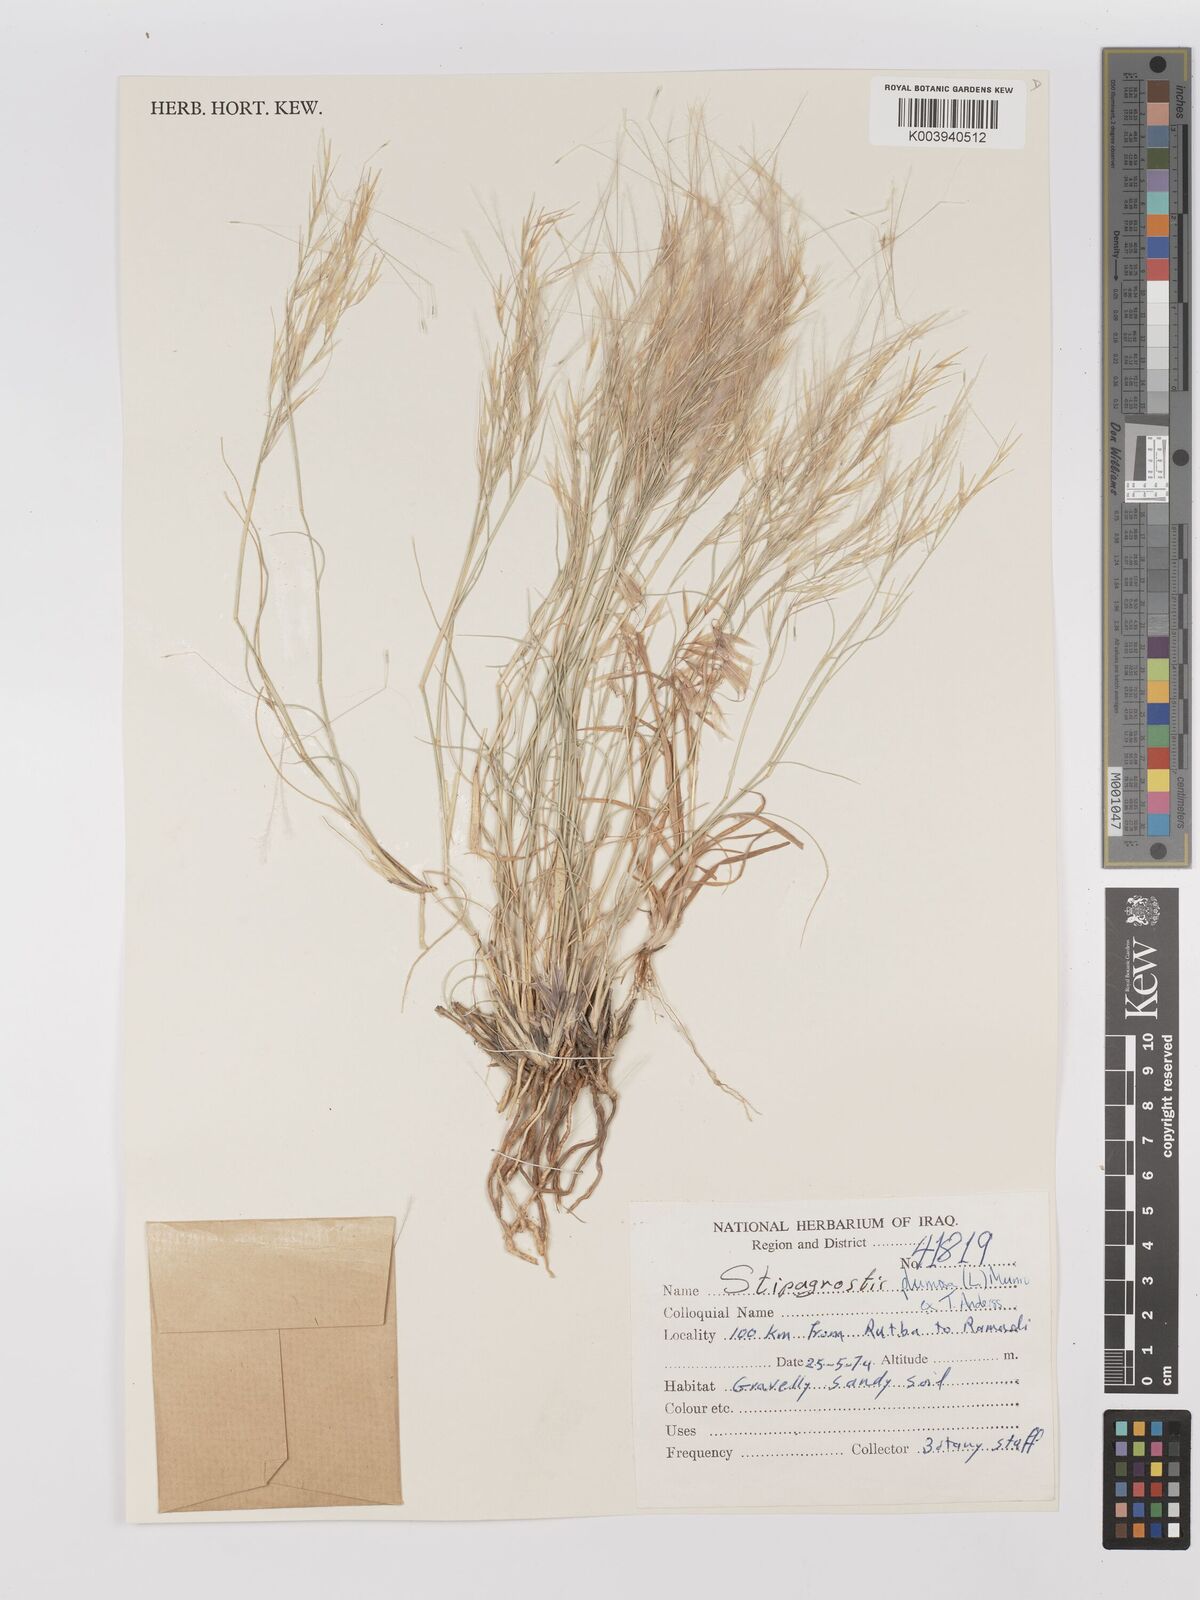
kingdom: Plantae
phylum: Tracheophyta
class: Liliopsida
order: Poales
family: Poaceae
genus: Stipagrostis
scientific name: Stipagrostis plumosa
